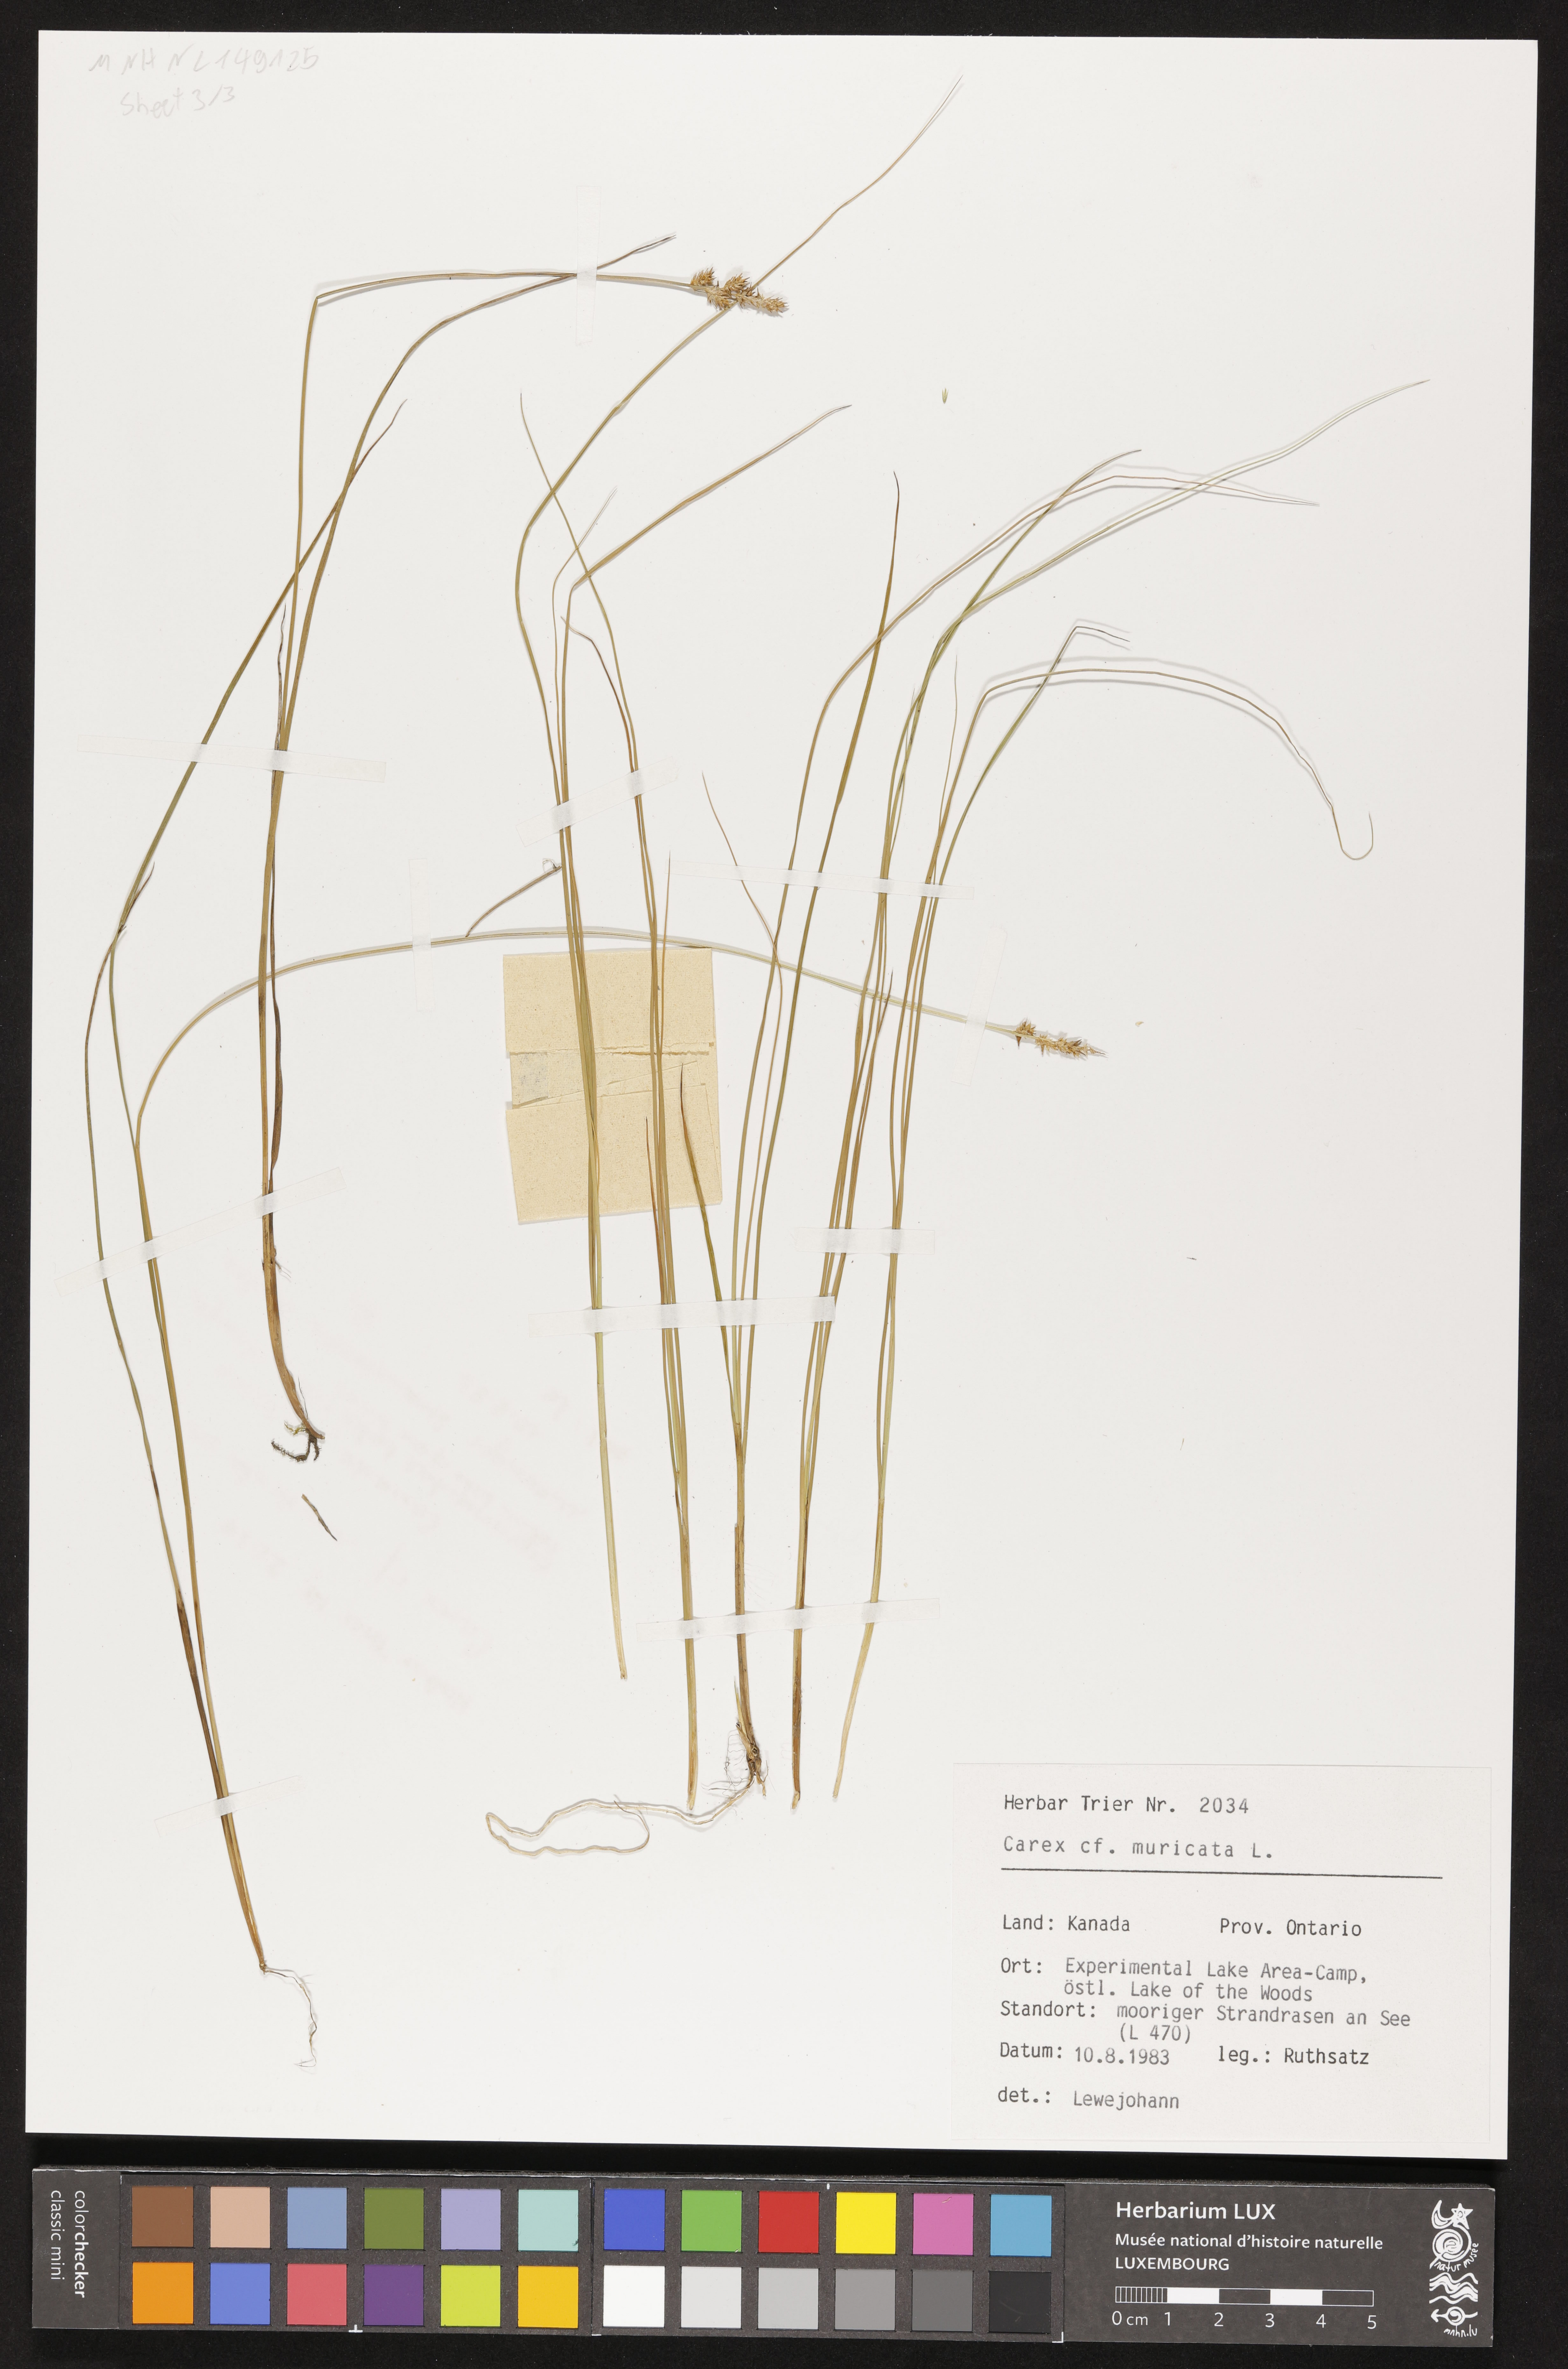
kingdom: Plantae
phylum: Tracheophyta
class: Liliopsida
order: Poales
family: Cyperaceae
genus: Carex
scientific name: Carex muricata
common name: Rough sedge
